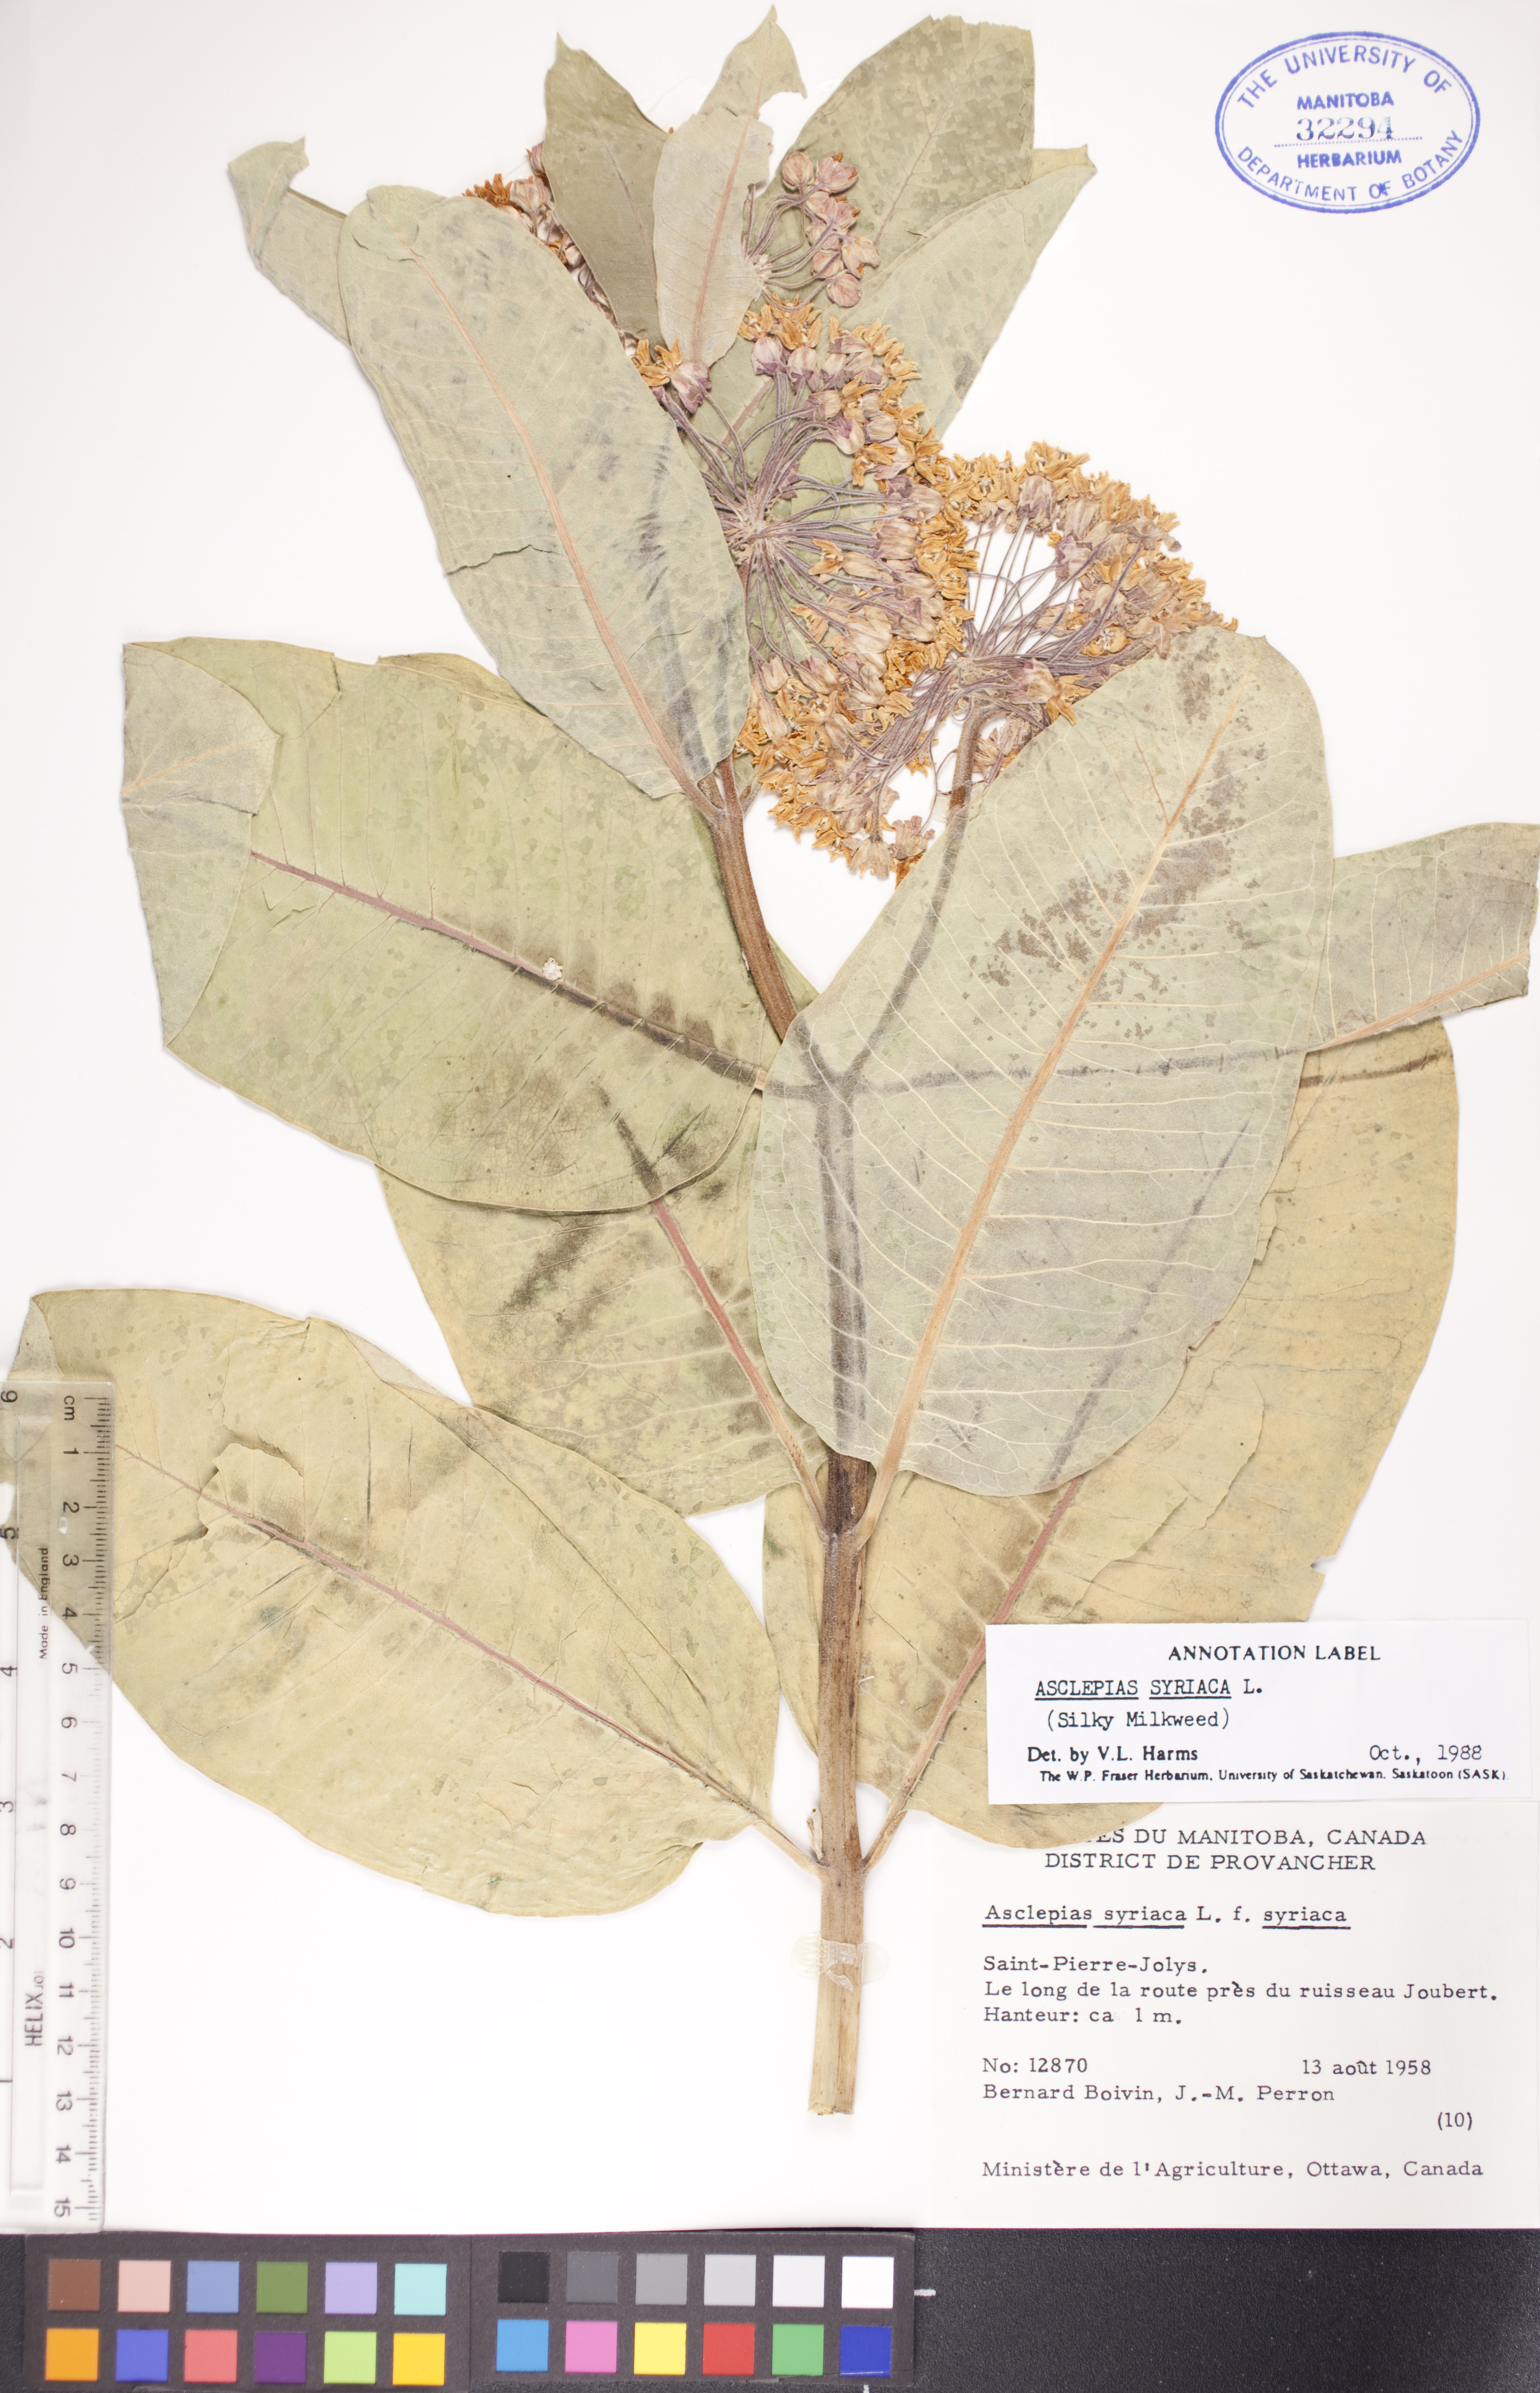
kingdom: Plantae
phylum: Tracheophyta
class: Magnoliopsida
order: Gentianales
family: Apocynaceae
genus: Asclepias
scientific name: Asclepias syriaca
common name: Common milkweed
